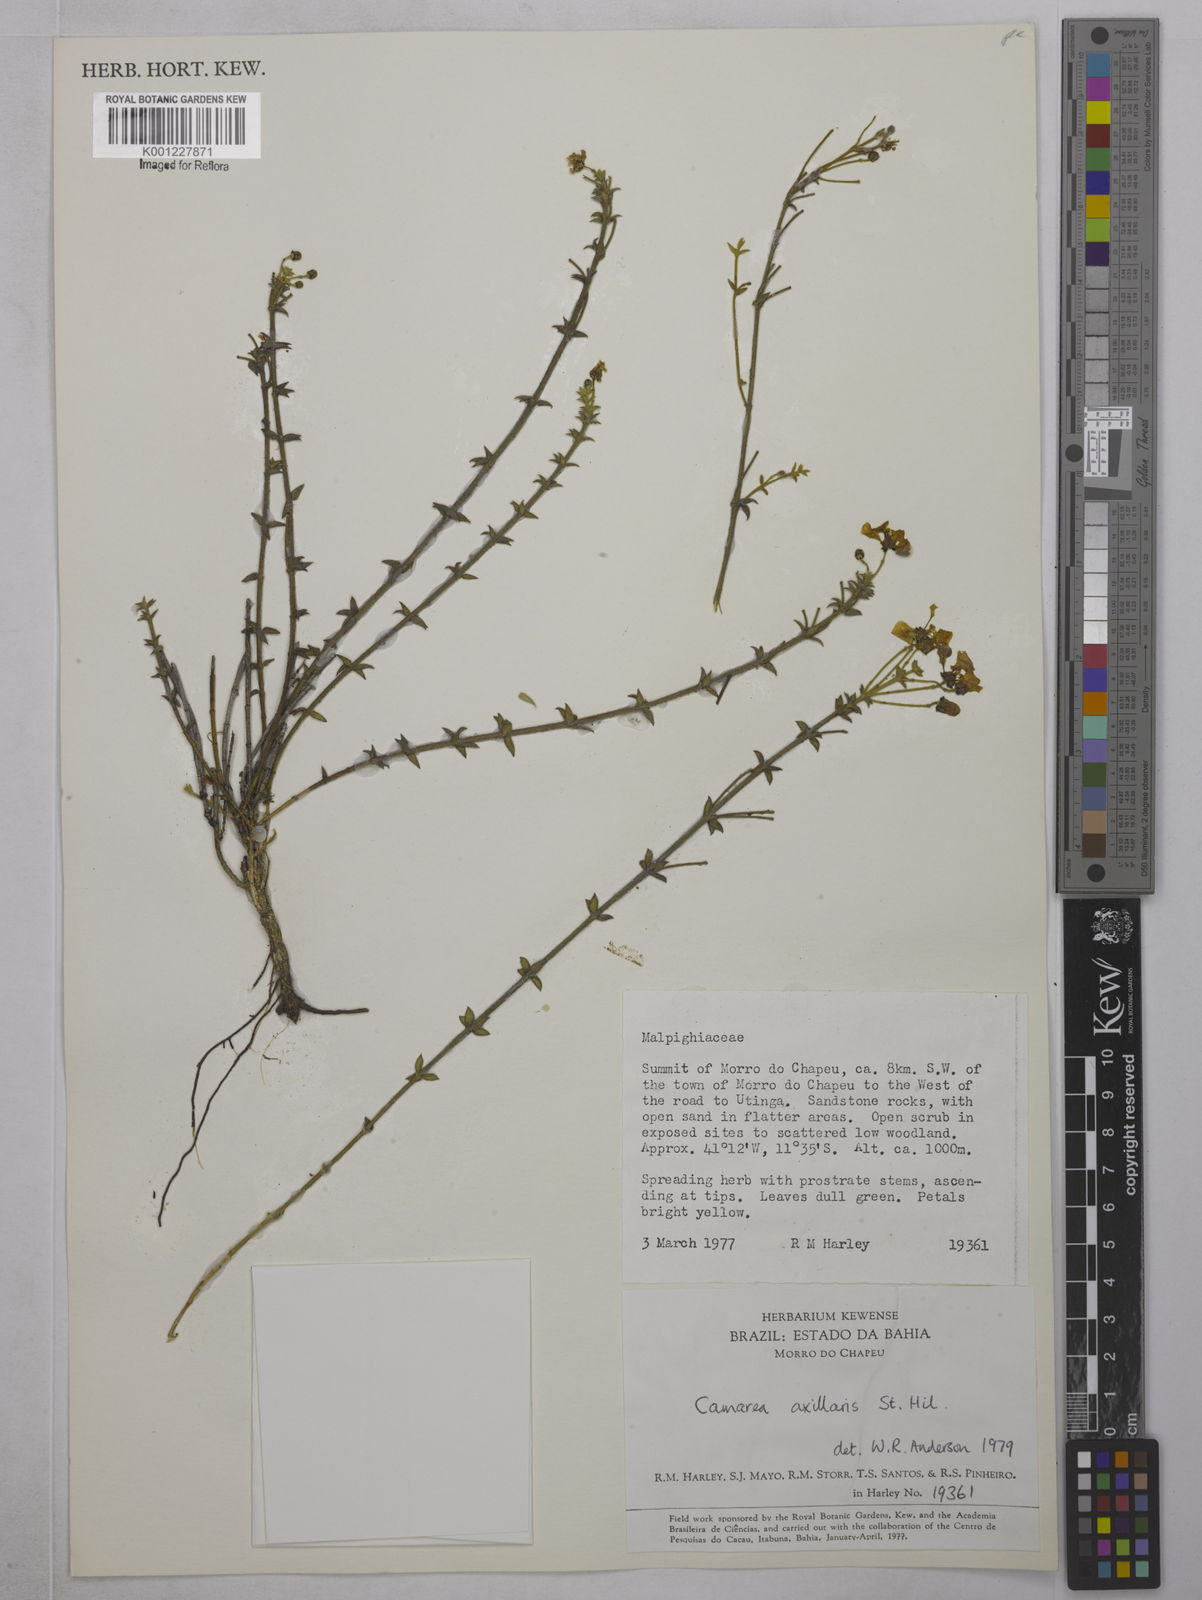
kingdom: Plantae
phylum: Tracheophyta
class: Magnoliopsida
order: Malpighiales
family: Malpighiaceae
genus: Camarea
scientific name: Camarea axillaris
